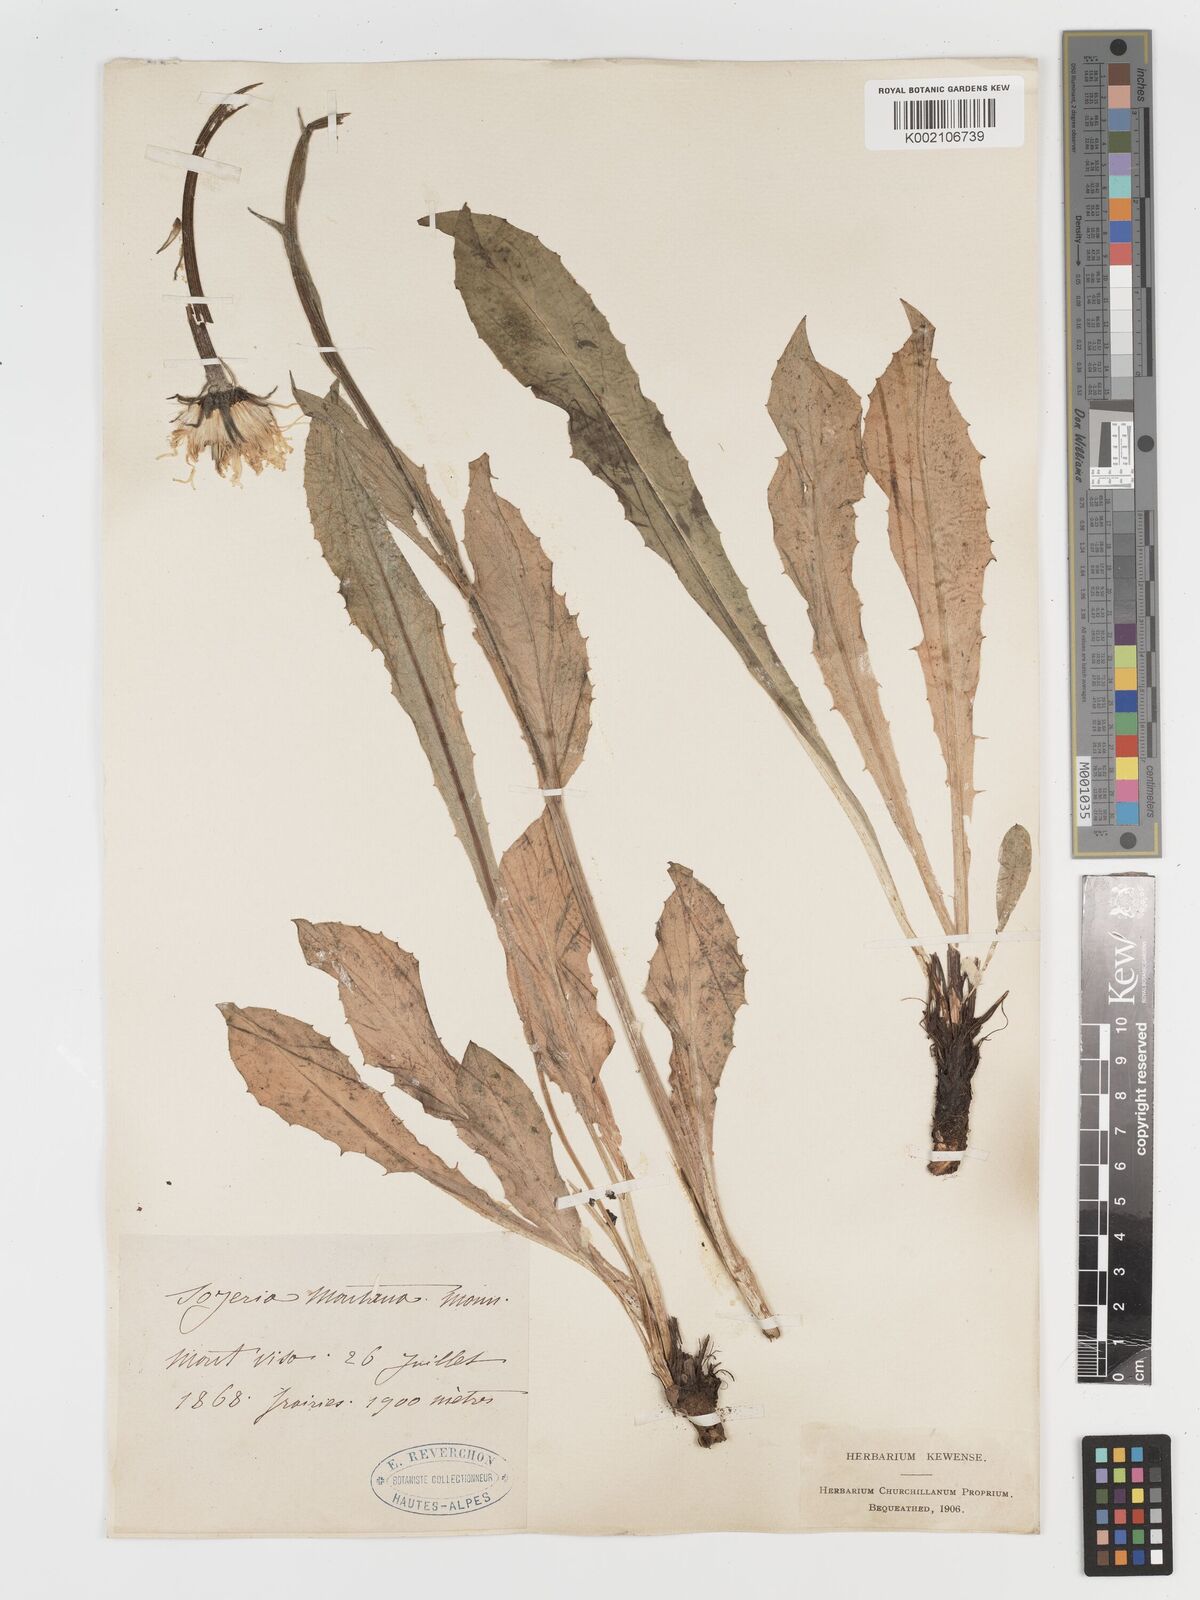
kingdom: Plantae
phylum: Tracheophyta
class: Magnoliopsida
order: Asterales
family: Asteraceae
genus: Crepis
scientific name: Crepis pontana
